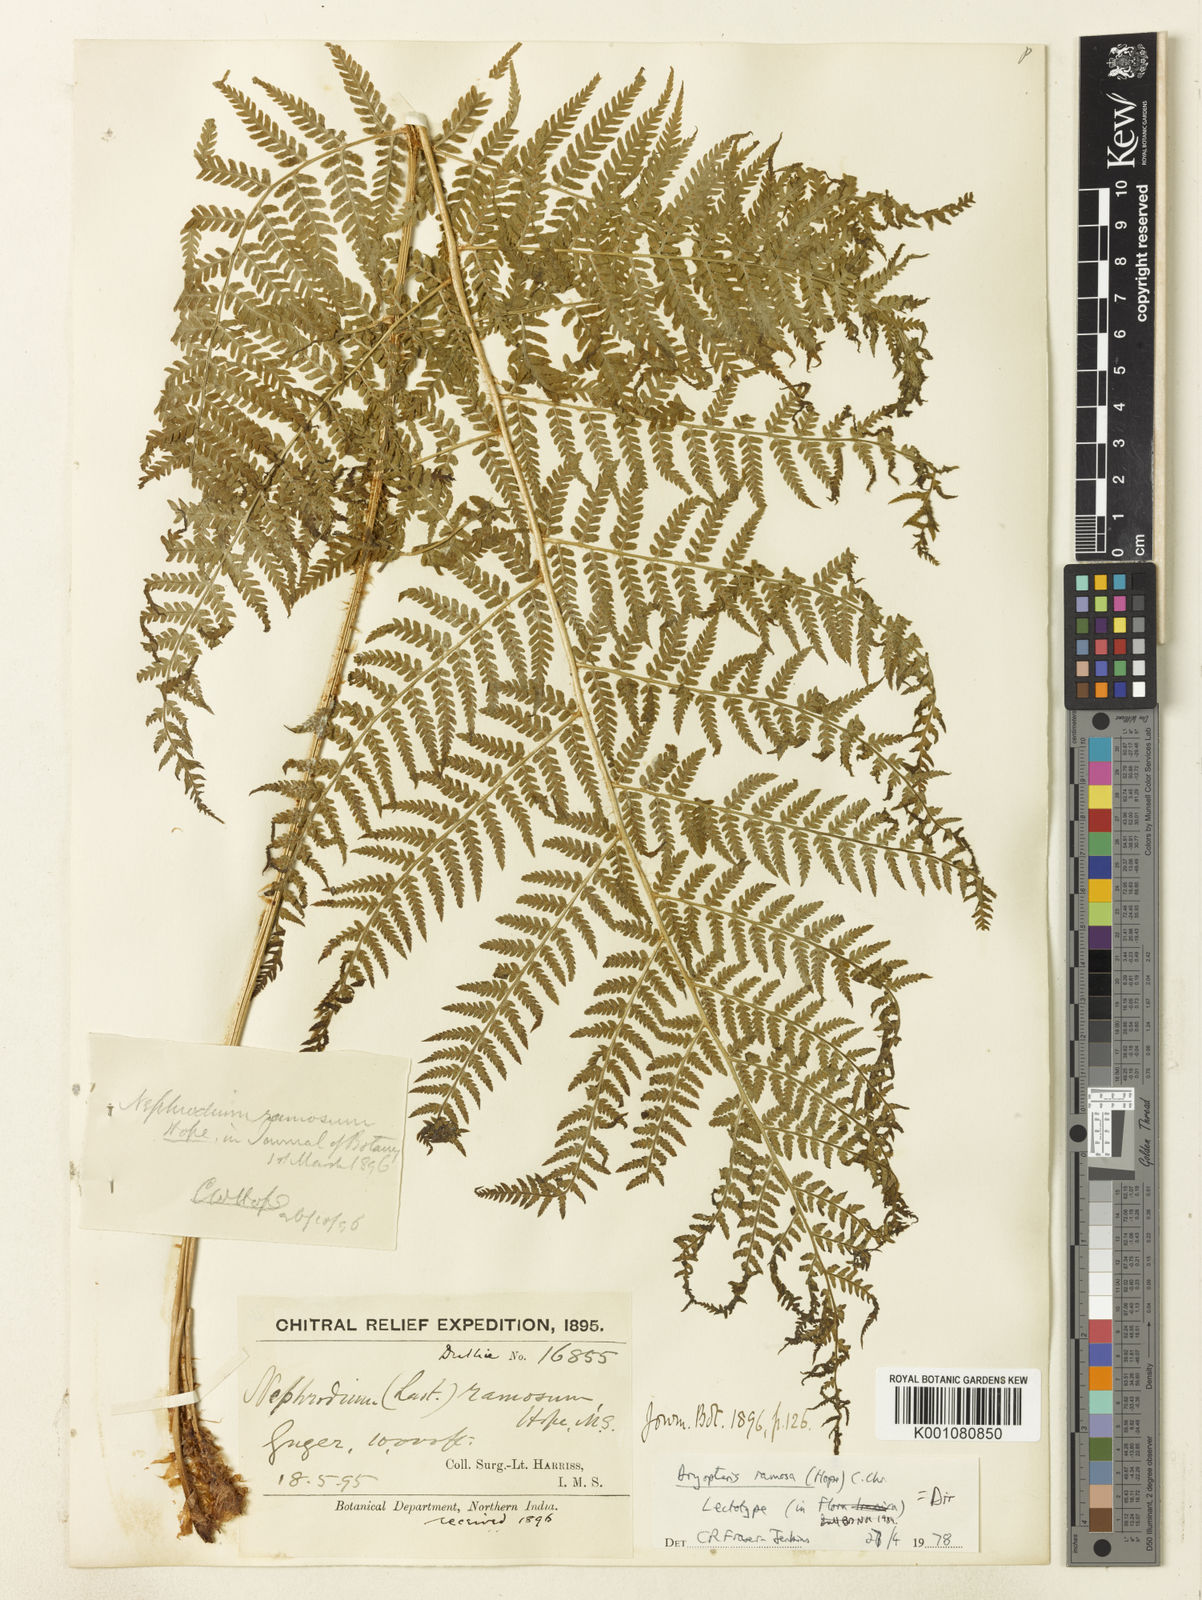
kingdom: Plantae
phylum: Tracheophyta
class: Polypodiopsida
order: Polypodiales
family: Dryopteridaceae
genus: Dryopteris
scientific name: Dryopteris ramosa
